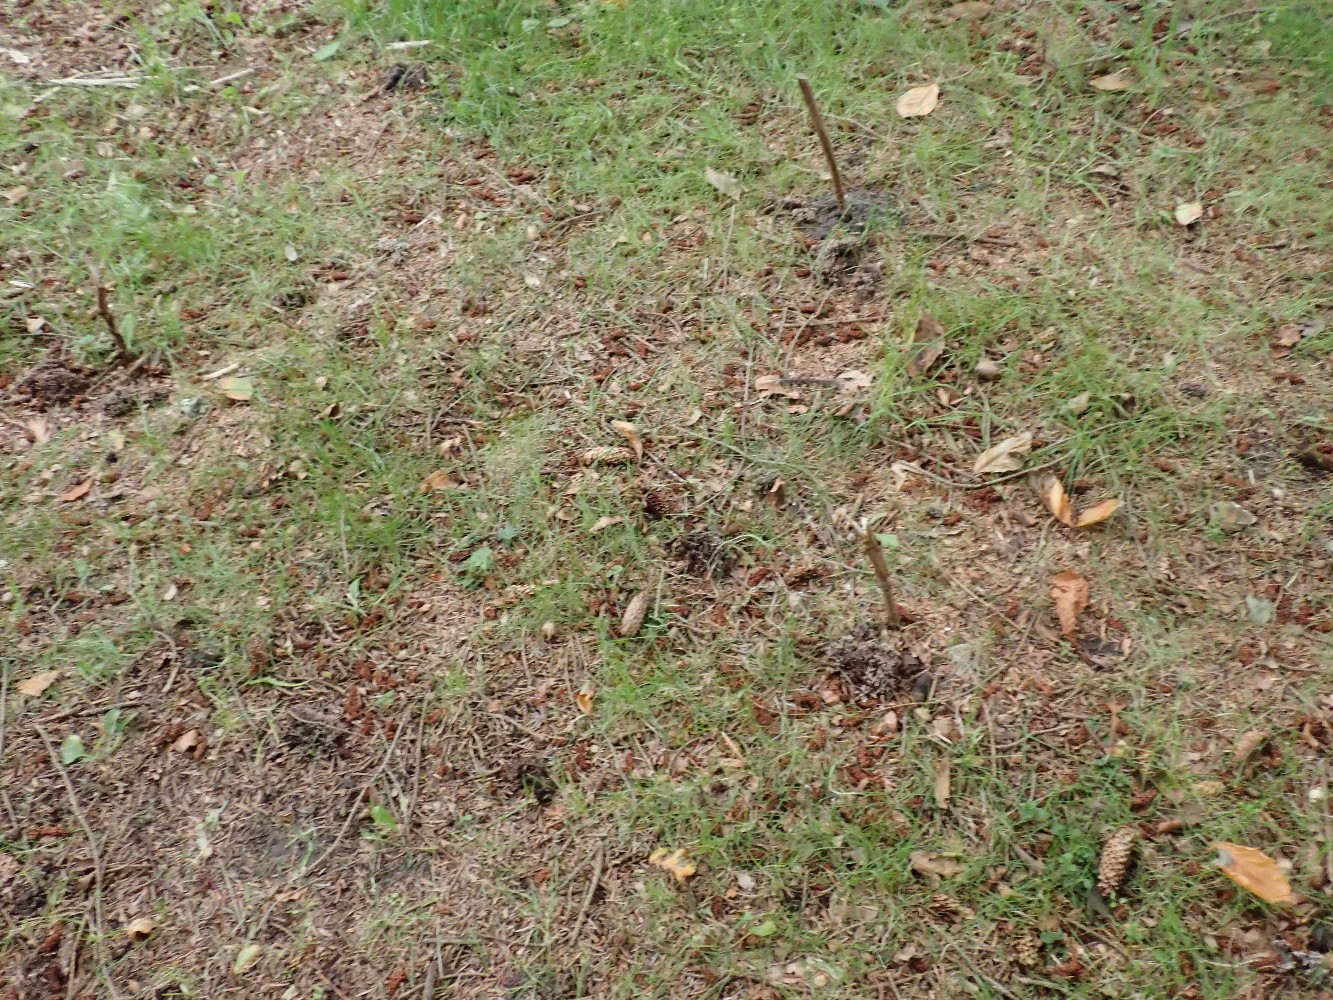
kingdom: Fungi
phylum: Basidiomycota
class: Agaricomycetes
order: Thelephorales
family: Thelephoraceae
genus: Thelephora
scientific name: Thelephora palmata
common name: grenet frynsesvamp
